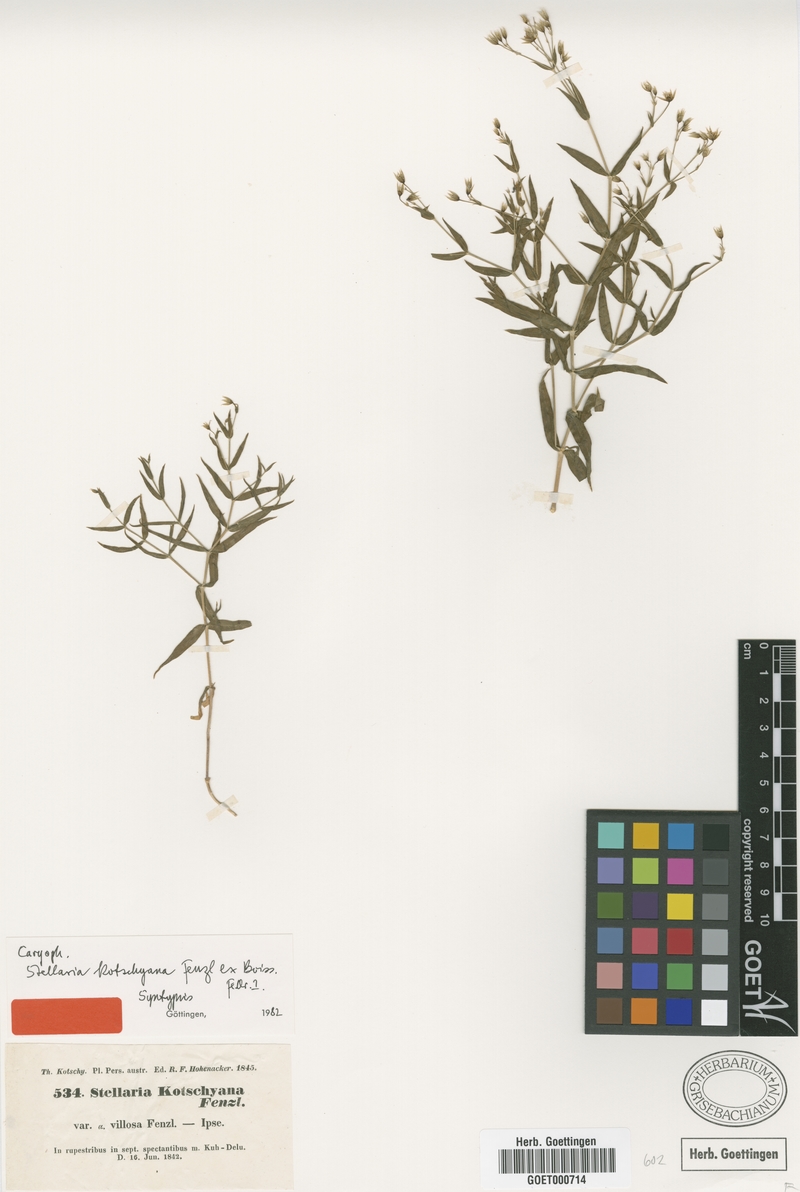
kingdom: Plantae
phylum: Tracheophyta
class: Magnoliopsida
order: Caryophyllales
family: Caryophyllaceae
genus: Mesostemma
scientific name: Mesostemma kotschyanum
